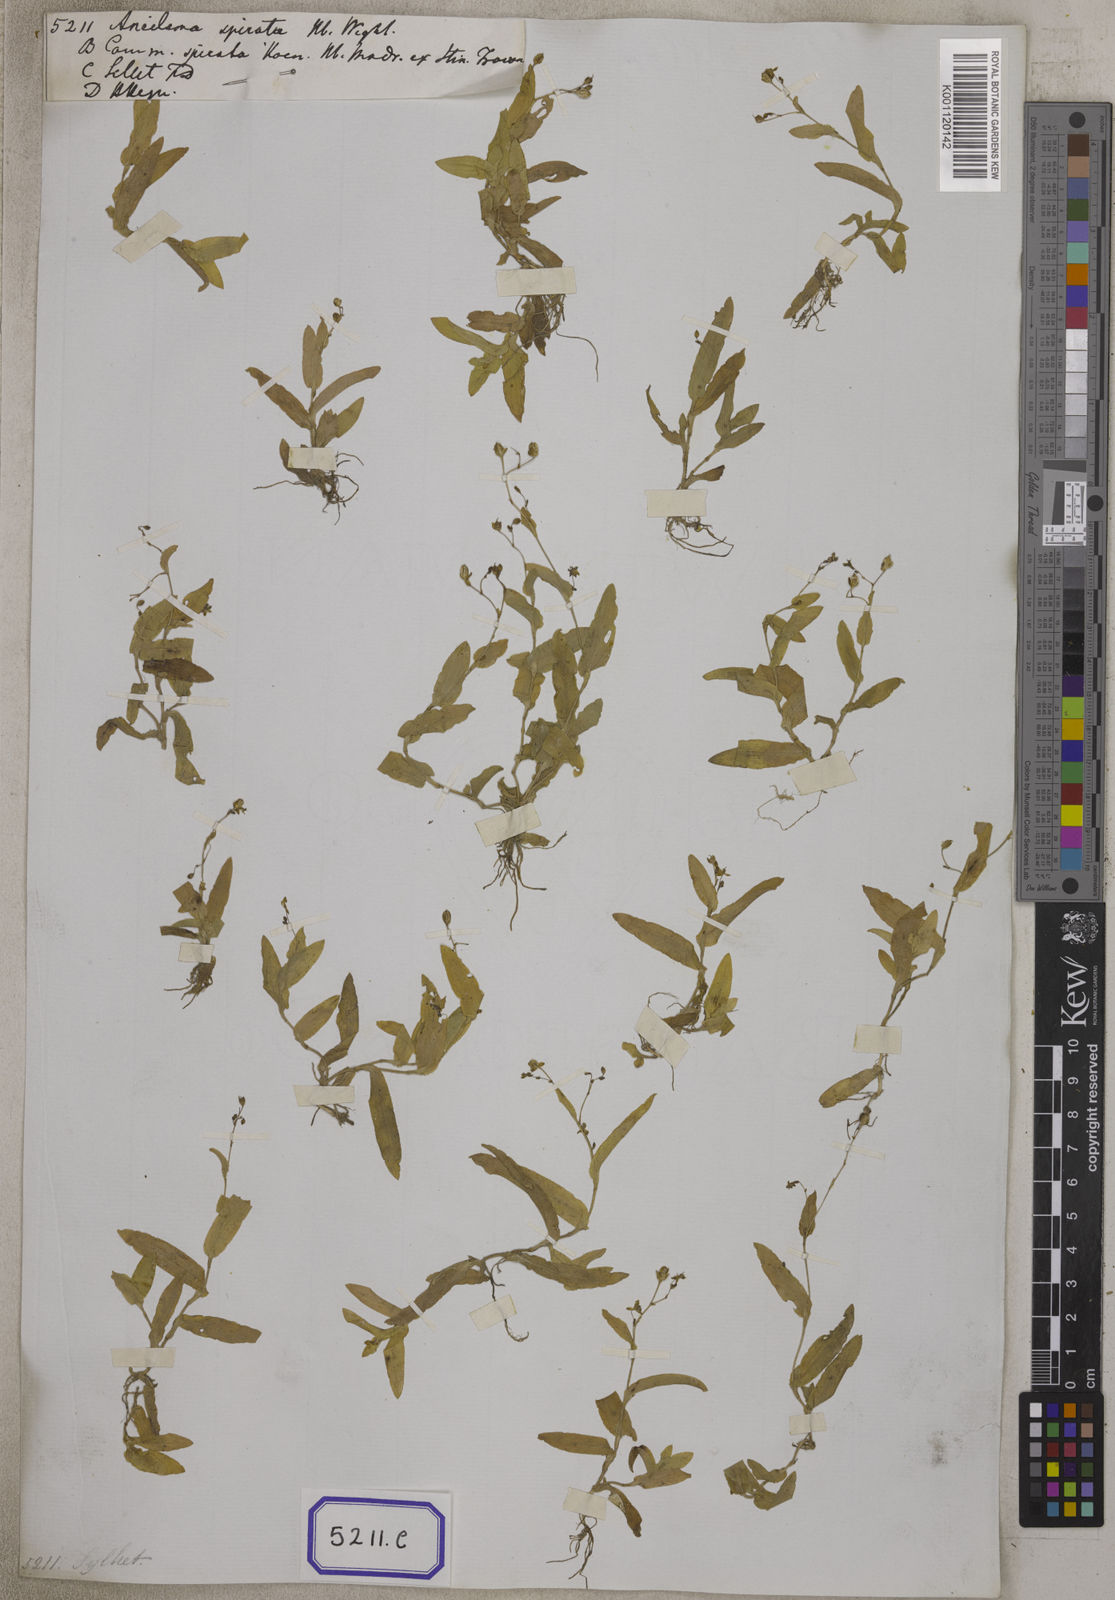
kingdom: Plantae
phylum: Tracheophyta
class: Liliopsida
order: Commelinales
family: Commelinaceae
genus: Aneilema
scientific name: Aneilema
